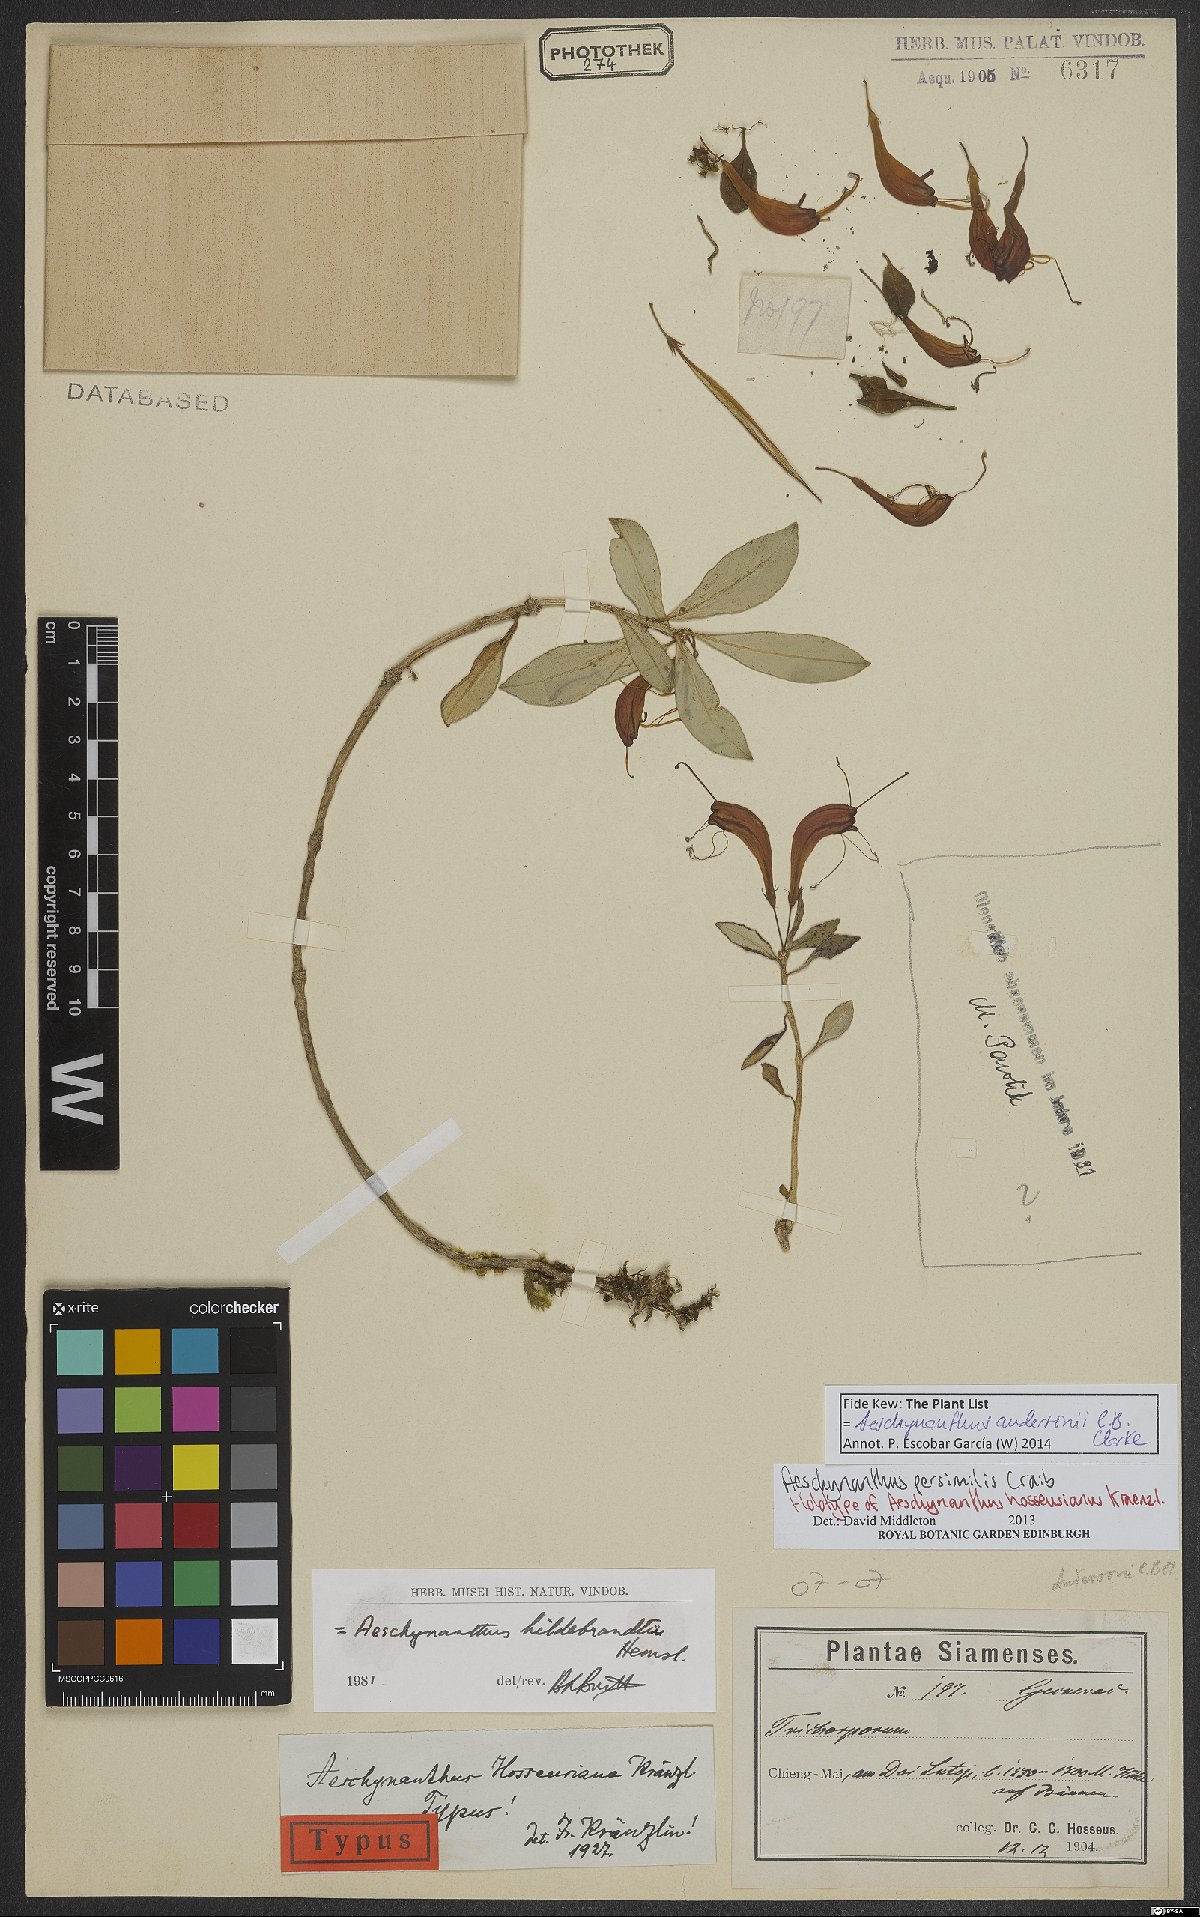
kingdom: Plantae
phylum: Tracheophyta
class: Magnoliopsida
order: Lamiales
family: Gesneriaceae
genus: Aeschynanthus
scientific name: Aeschynanthus andersonii
